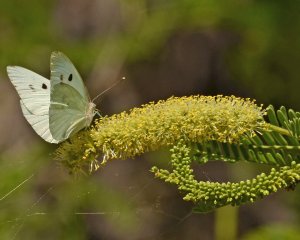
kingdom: Animalia
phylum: Arthropoda
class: Insecta
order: Lepidoptera
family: Pieridae
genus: Ganyra
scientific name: Ganyra howarthi
